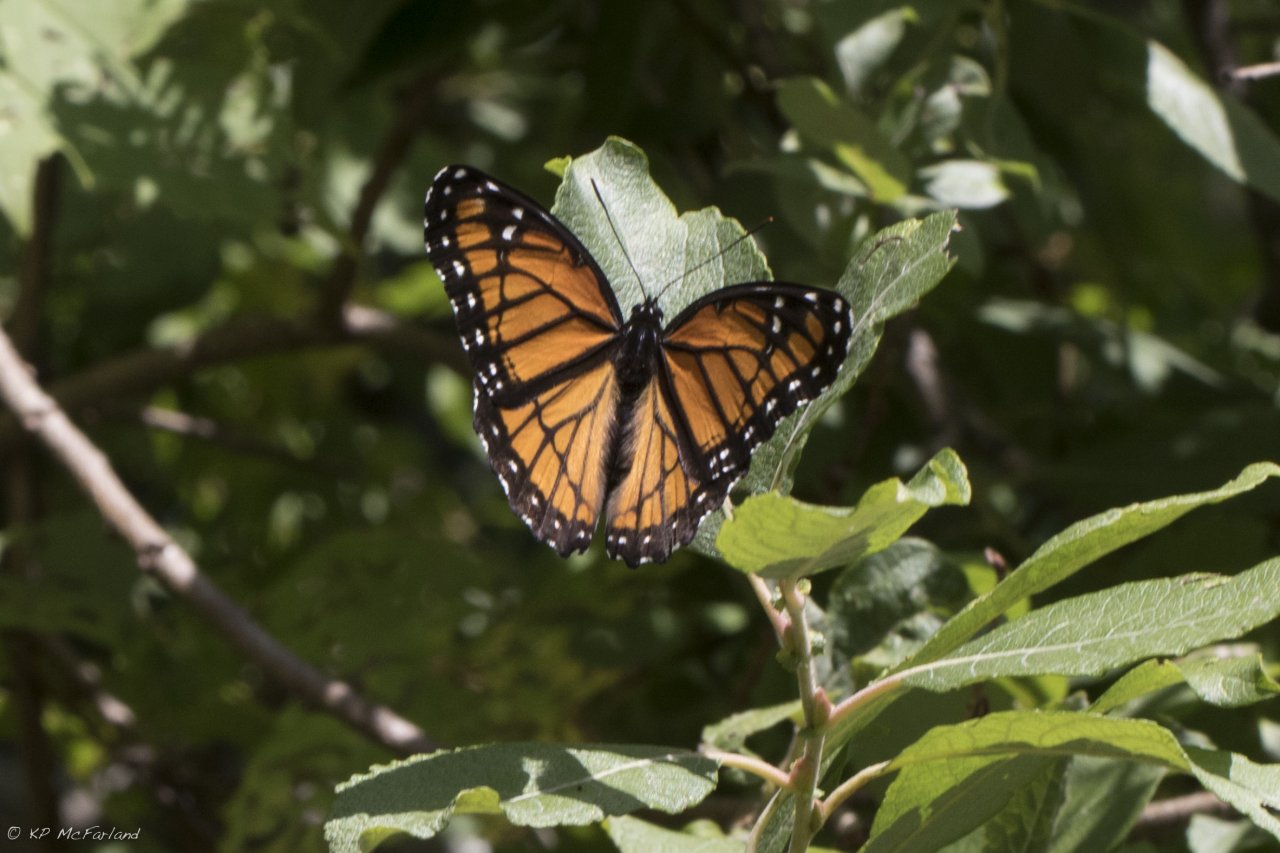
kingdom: Animalia
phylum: Arthropoda
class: Insecta
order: Lepidoptera
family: Nymphalidae
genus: Limenitis
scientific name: Limenitis archippus
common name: Viceroy
